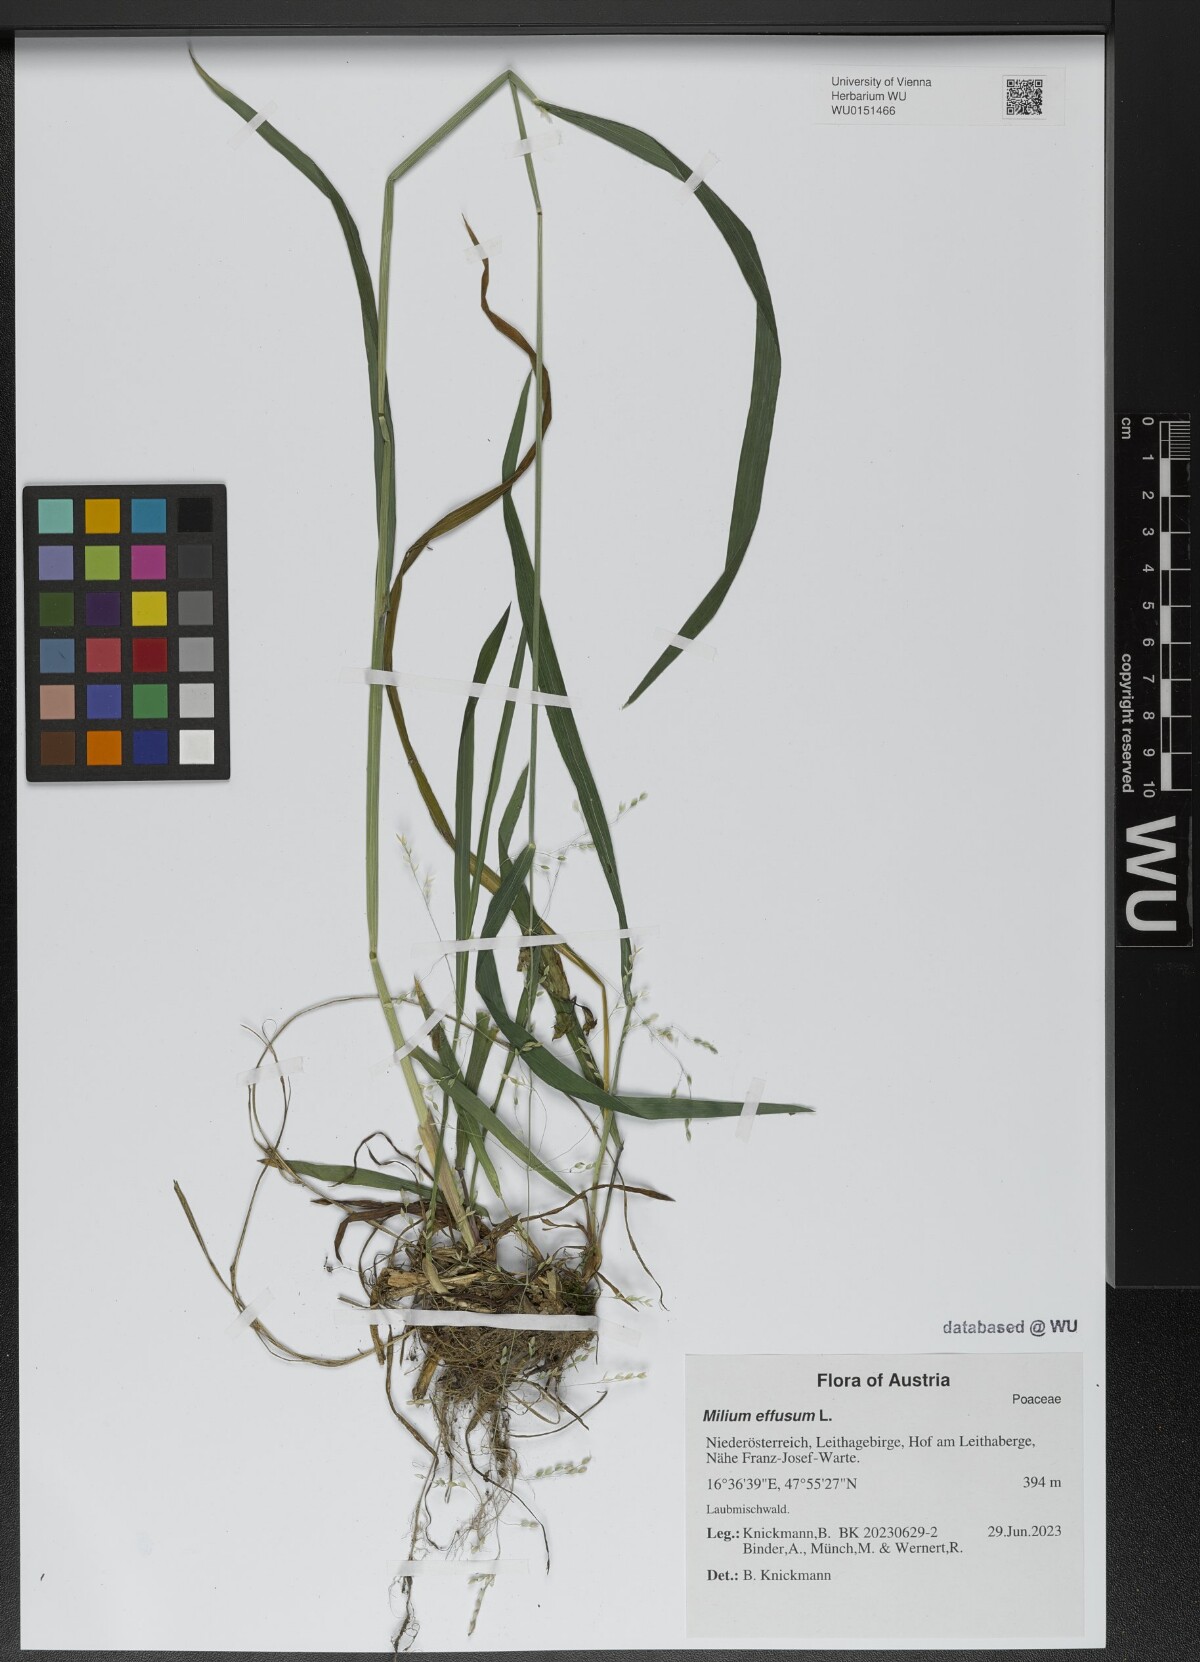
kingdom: Plantae
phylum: Tracheophyta
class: Liliopsida
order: Poales
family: Poaceae
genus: Milium
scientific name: Milium effusum
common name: Wood millet
